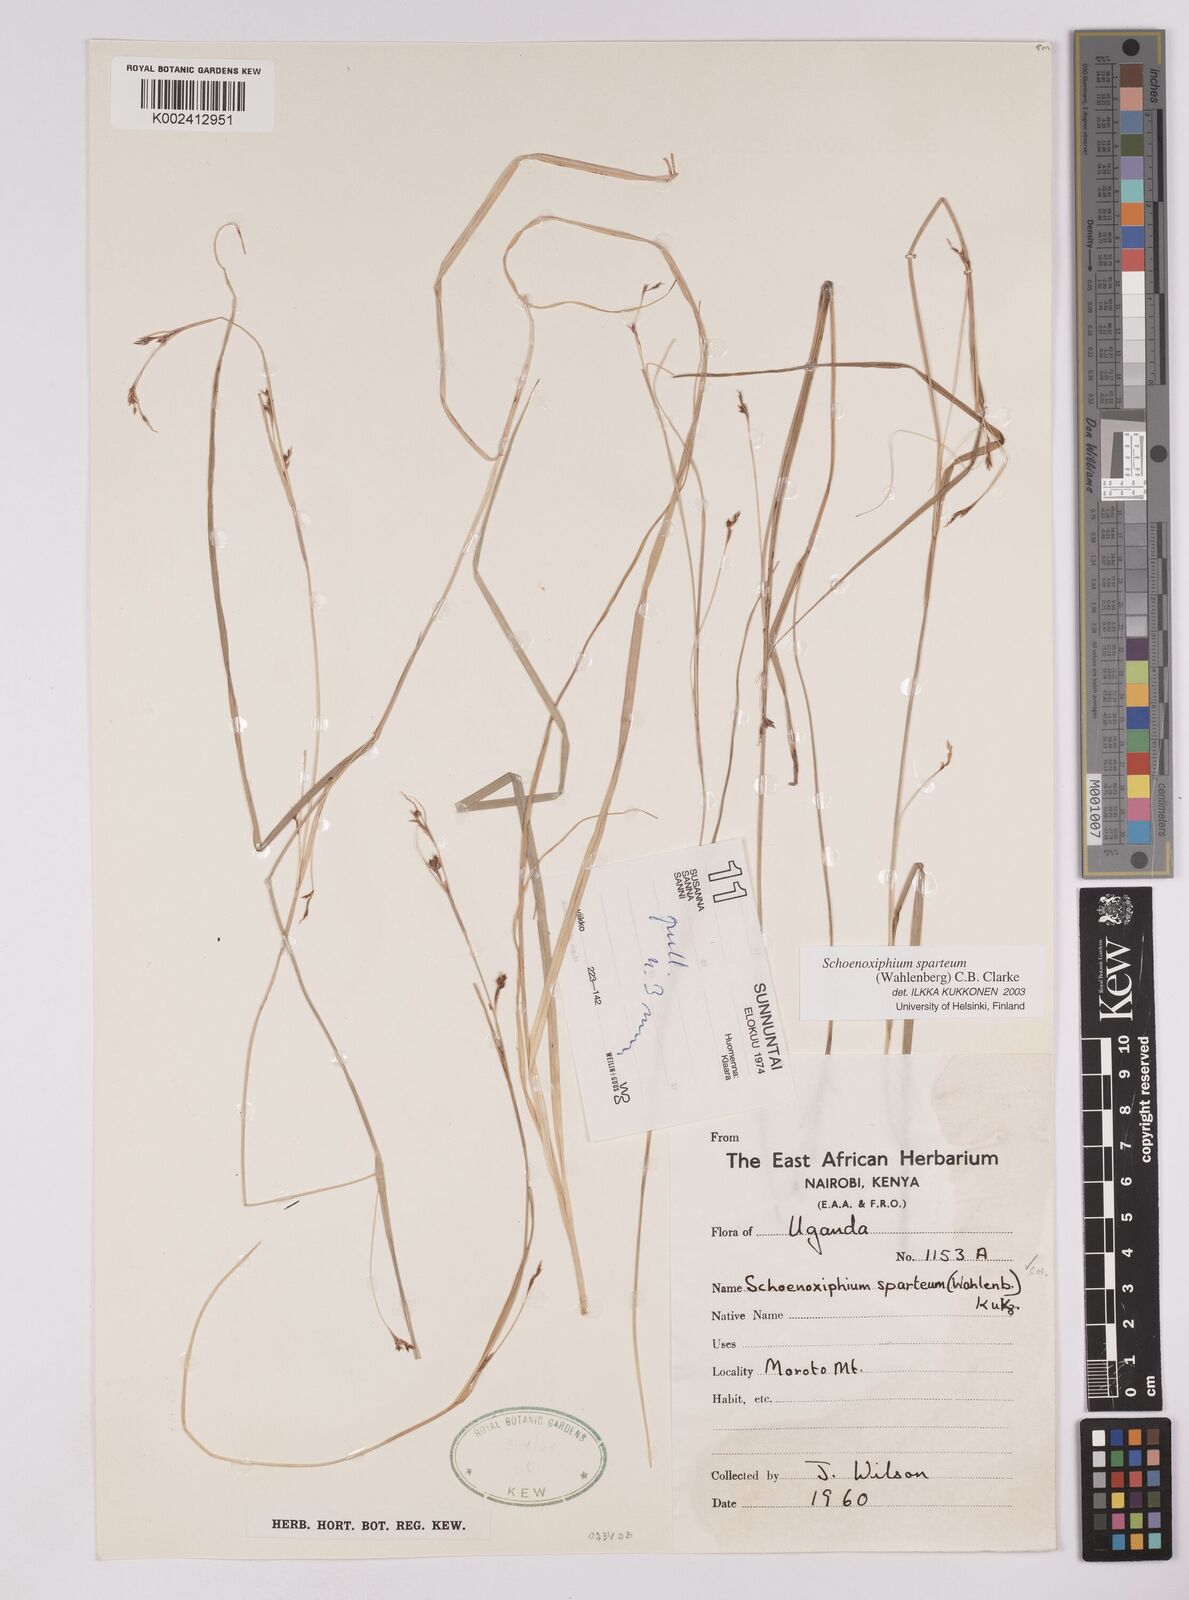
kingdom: Plantae
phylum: Tracheophyta
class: Liliopsida
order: Poales
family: Cyperaceae
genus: Carex
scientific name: Carex schimperiana
